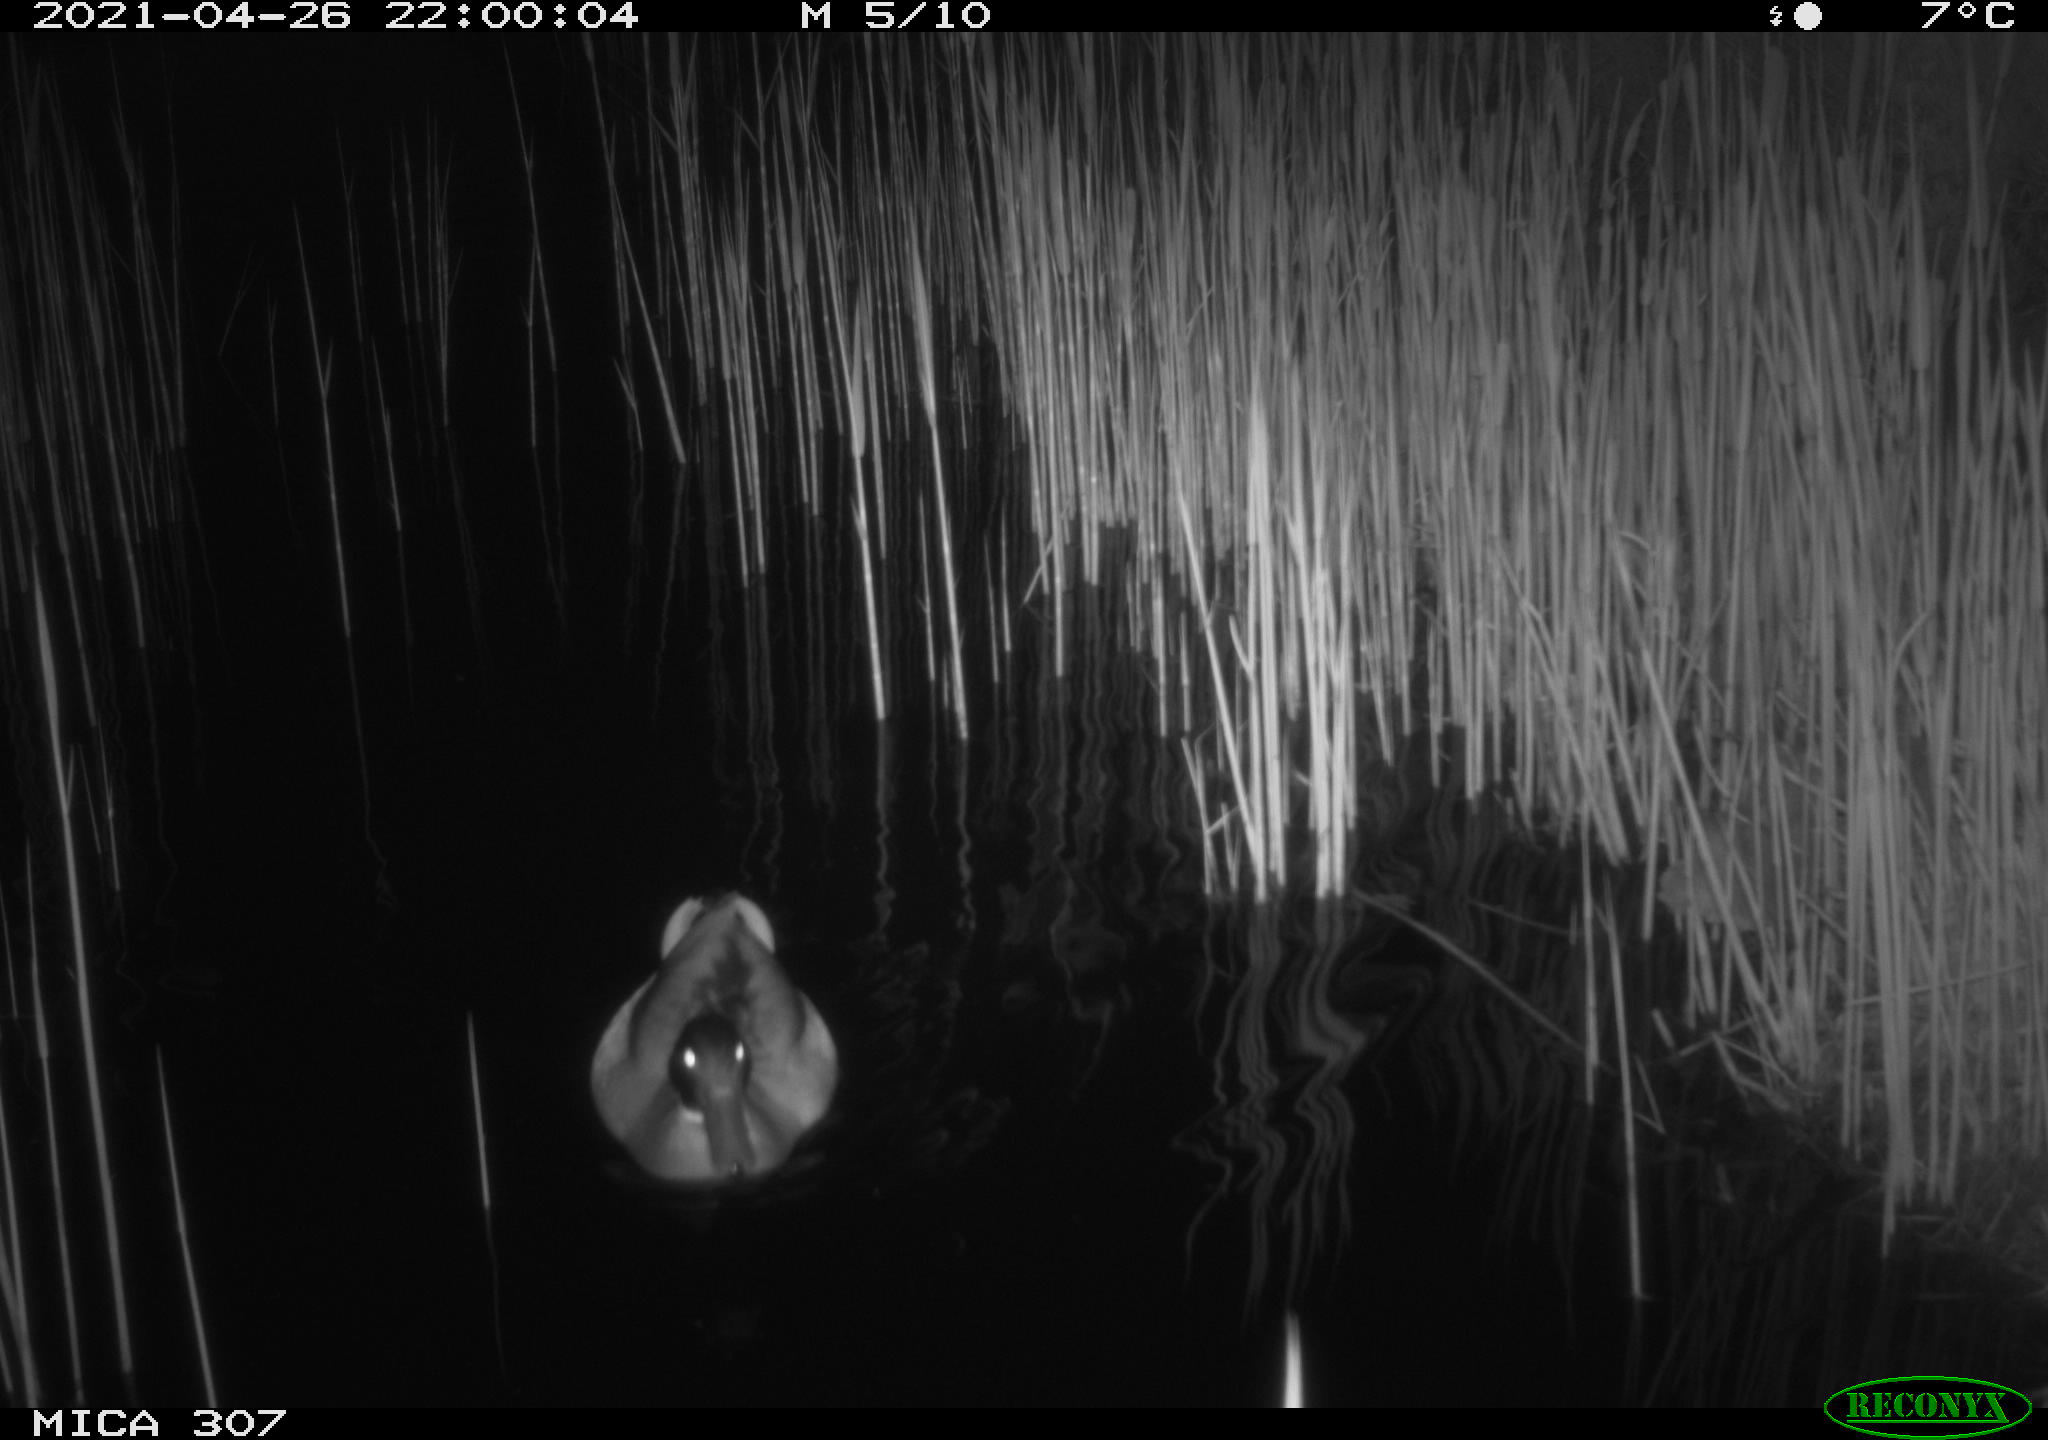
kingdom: Animalia
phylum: Chordata
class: Aves
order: Anseriformes
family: Anatidae
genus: Anas
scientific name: Anas platyrhynchos
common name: Mallard
